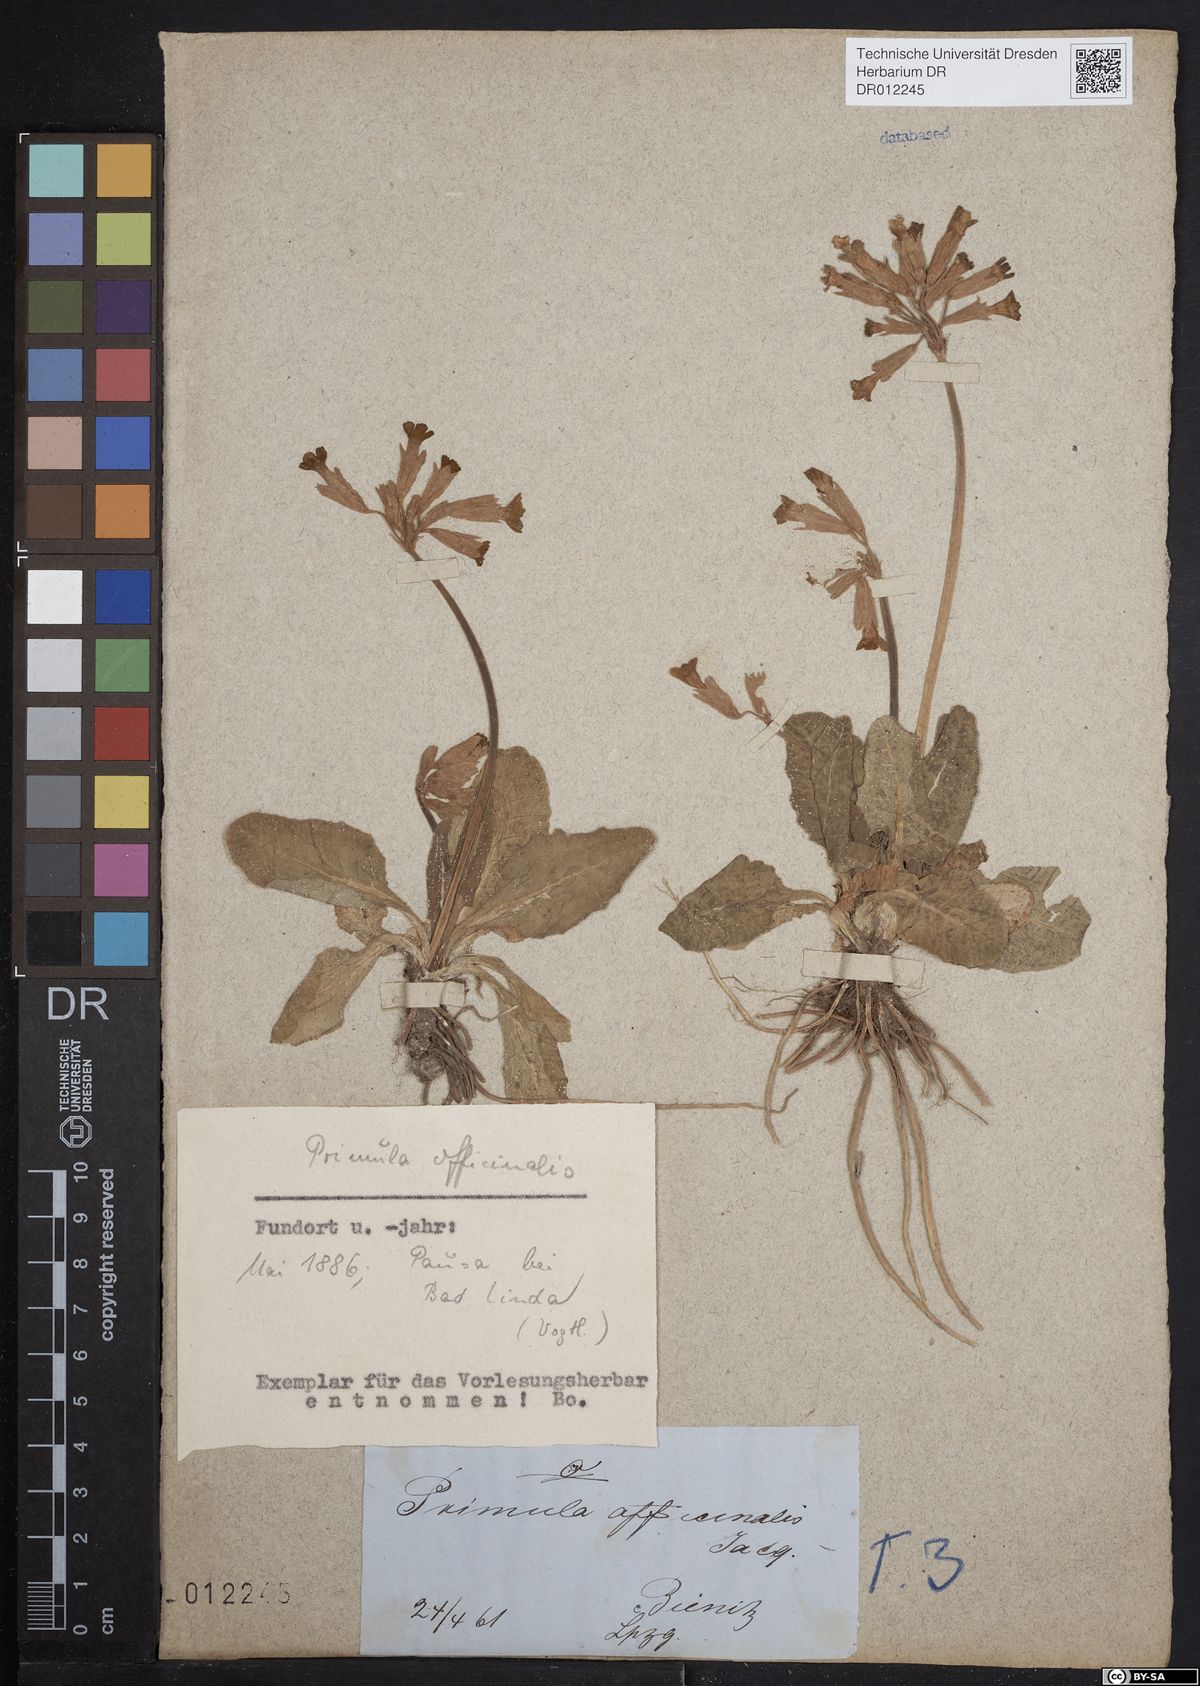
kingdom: Plantae
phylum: Tracheophyta
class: Magnoliopsida
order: Ericales
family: Primulaceae
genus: Primula
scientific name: Primula veris
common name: Cowslip
